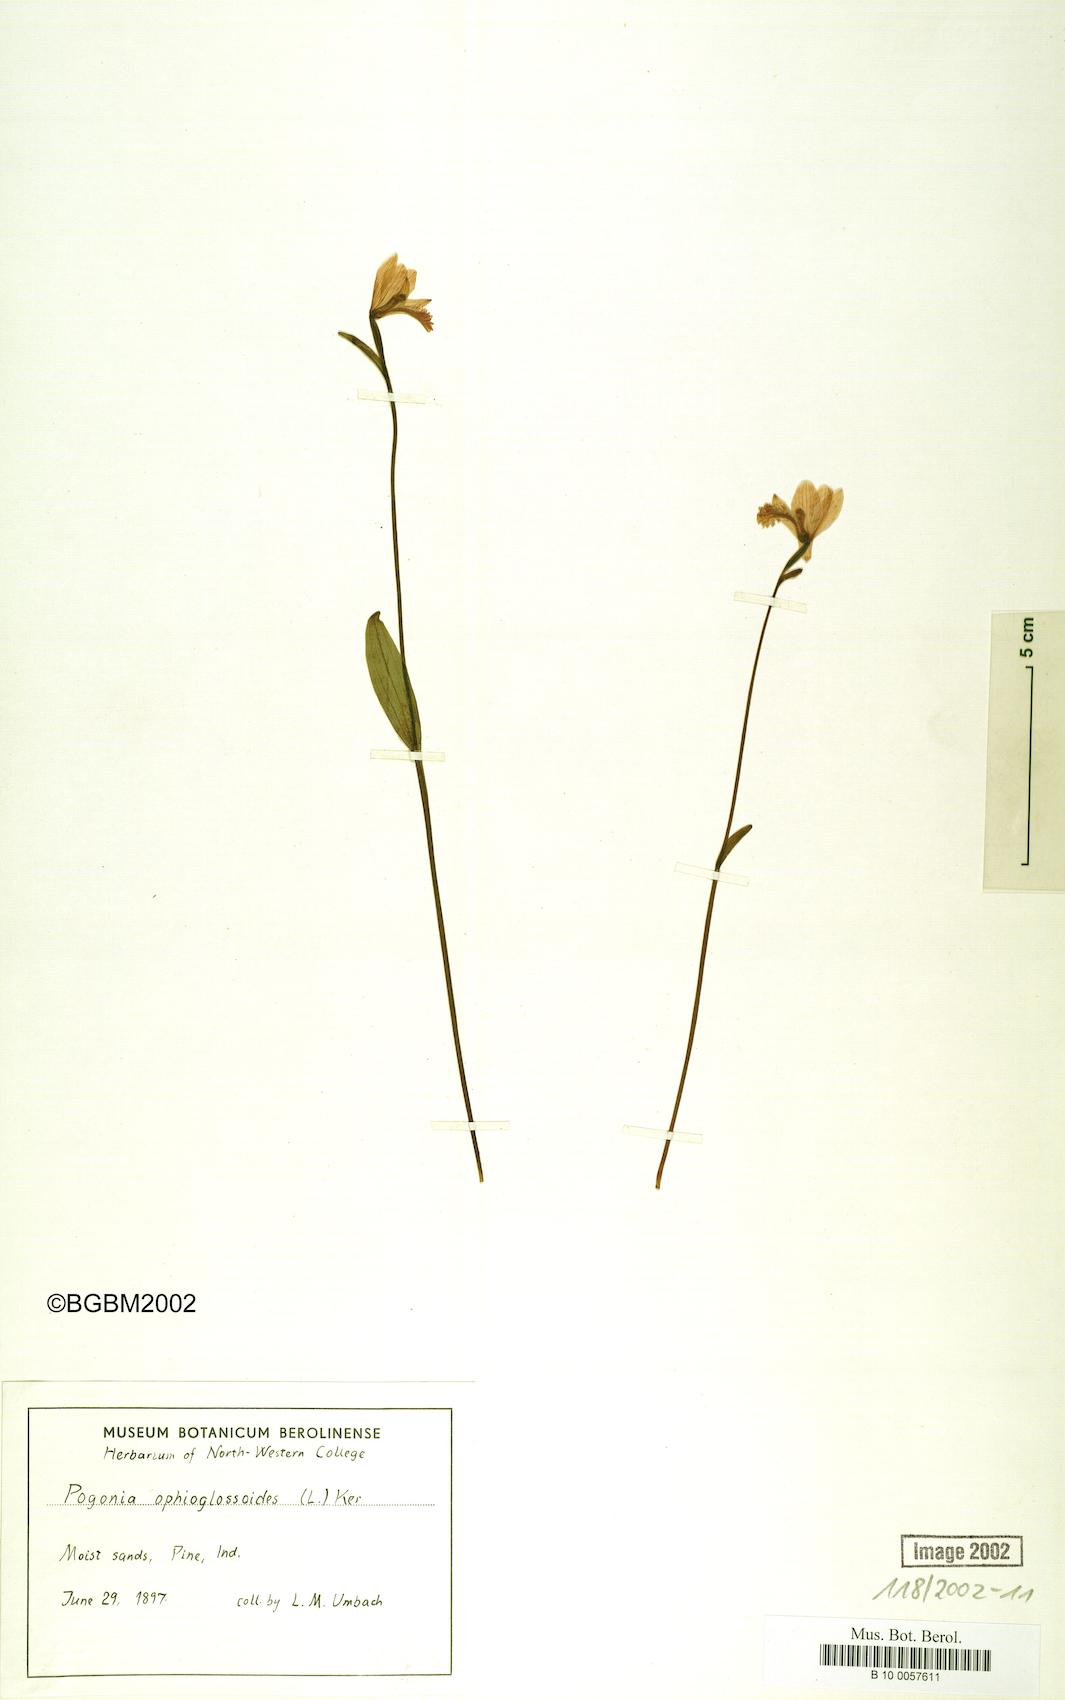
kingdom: Plantae
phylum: Tracheophyta
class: Liliopsida
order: Asparagales
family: Orchidaceae
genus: Pogonia
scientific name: Pogonia ophioglossoides
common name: Rose pogonia
